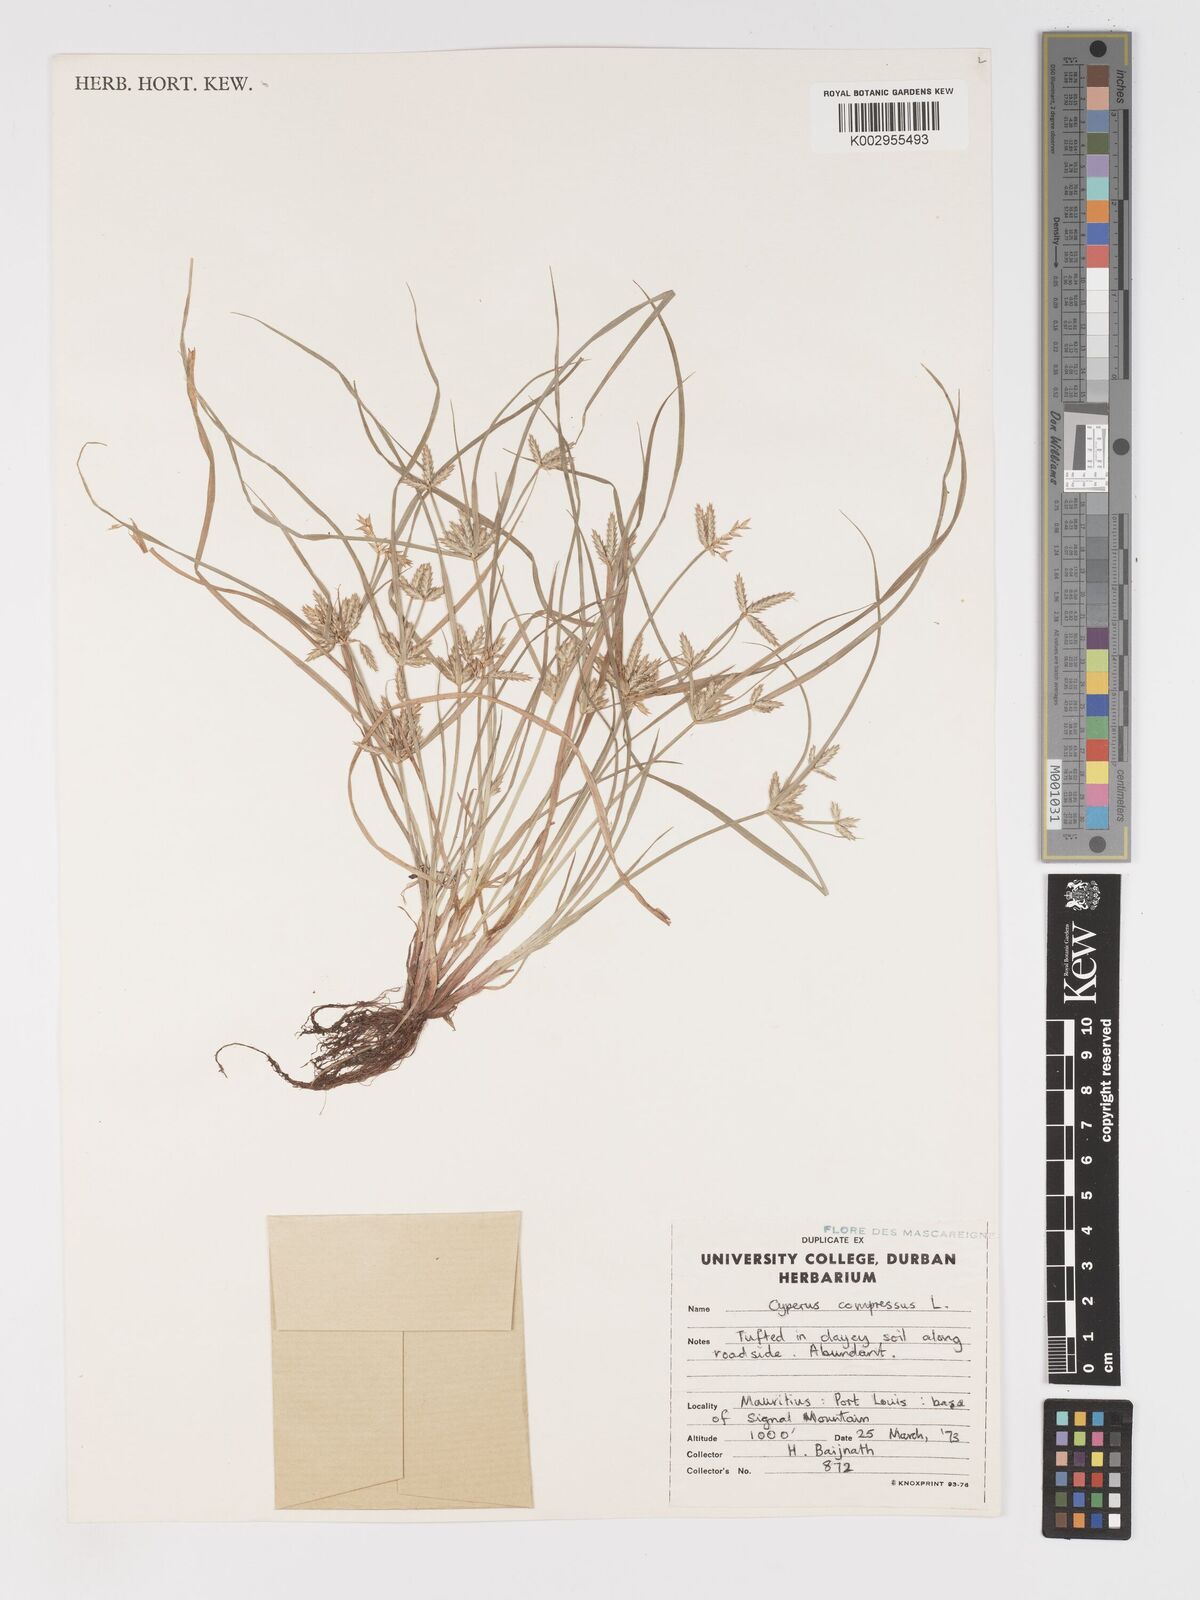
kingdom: Plantae
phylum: Tracheophyta
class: Liliopsida
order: Poales
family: Cyperaceae
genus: Cyperus
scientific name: Cyperus compressus
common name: Poorland flatsedge
